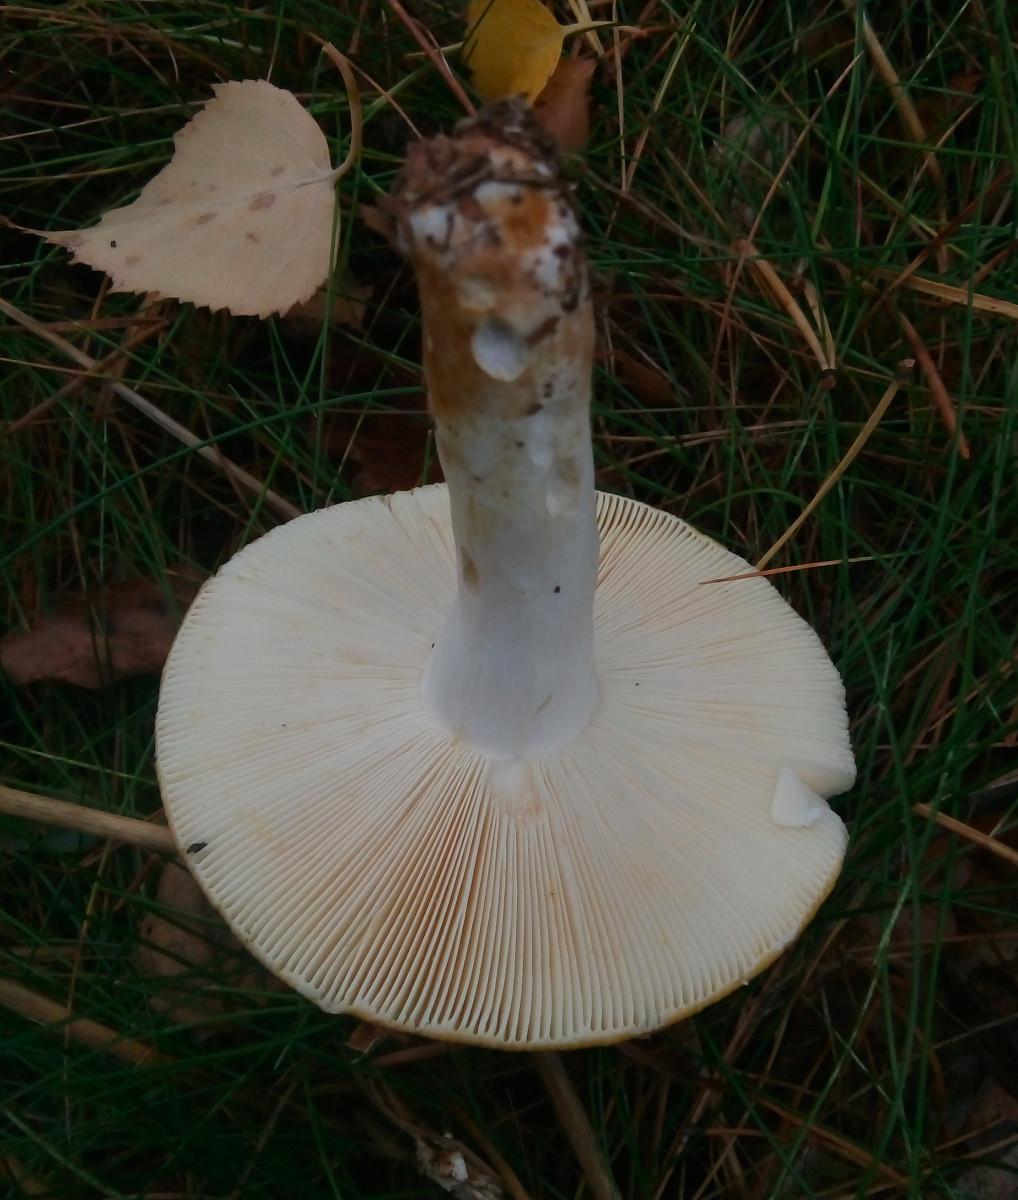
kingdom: Fungi
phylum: Basidiomycota
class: Agaricomycetes
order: Russulales
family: Russulaceae
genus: Russula
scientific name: Russula claroflava
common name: birke-skørhat
